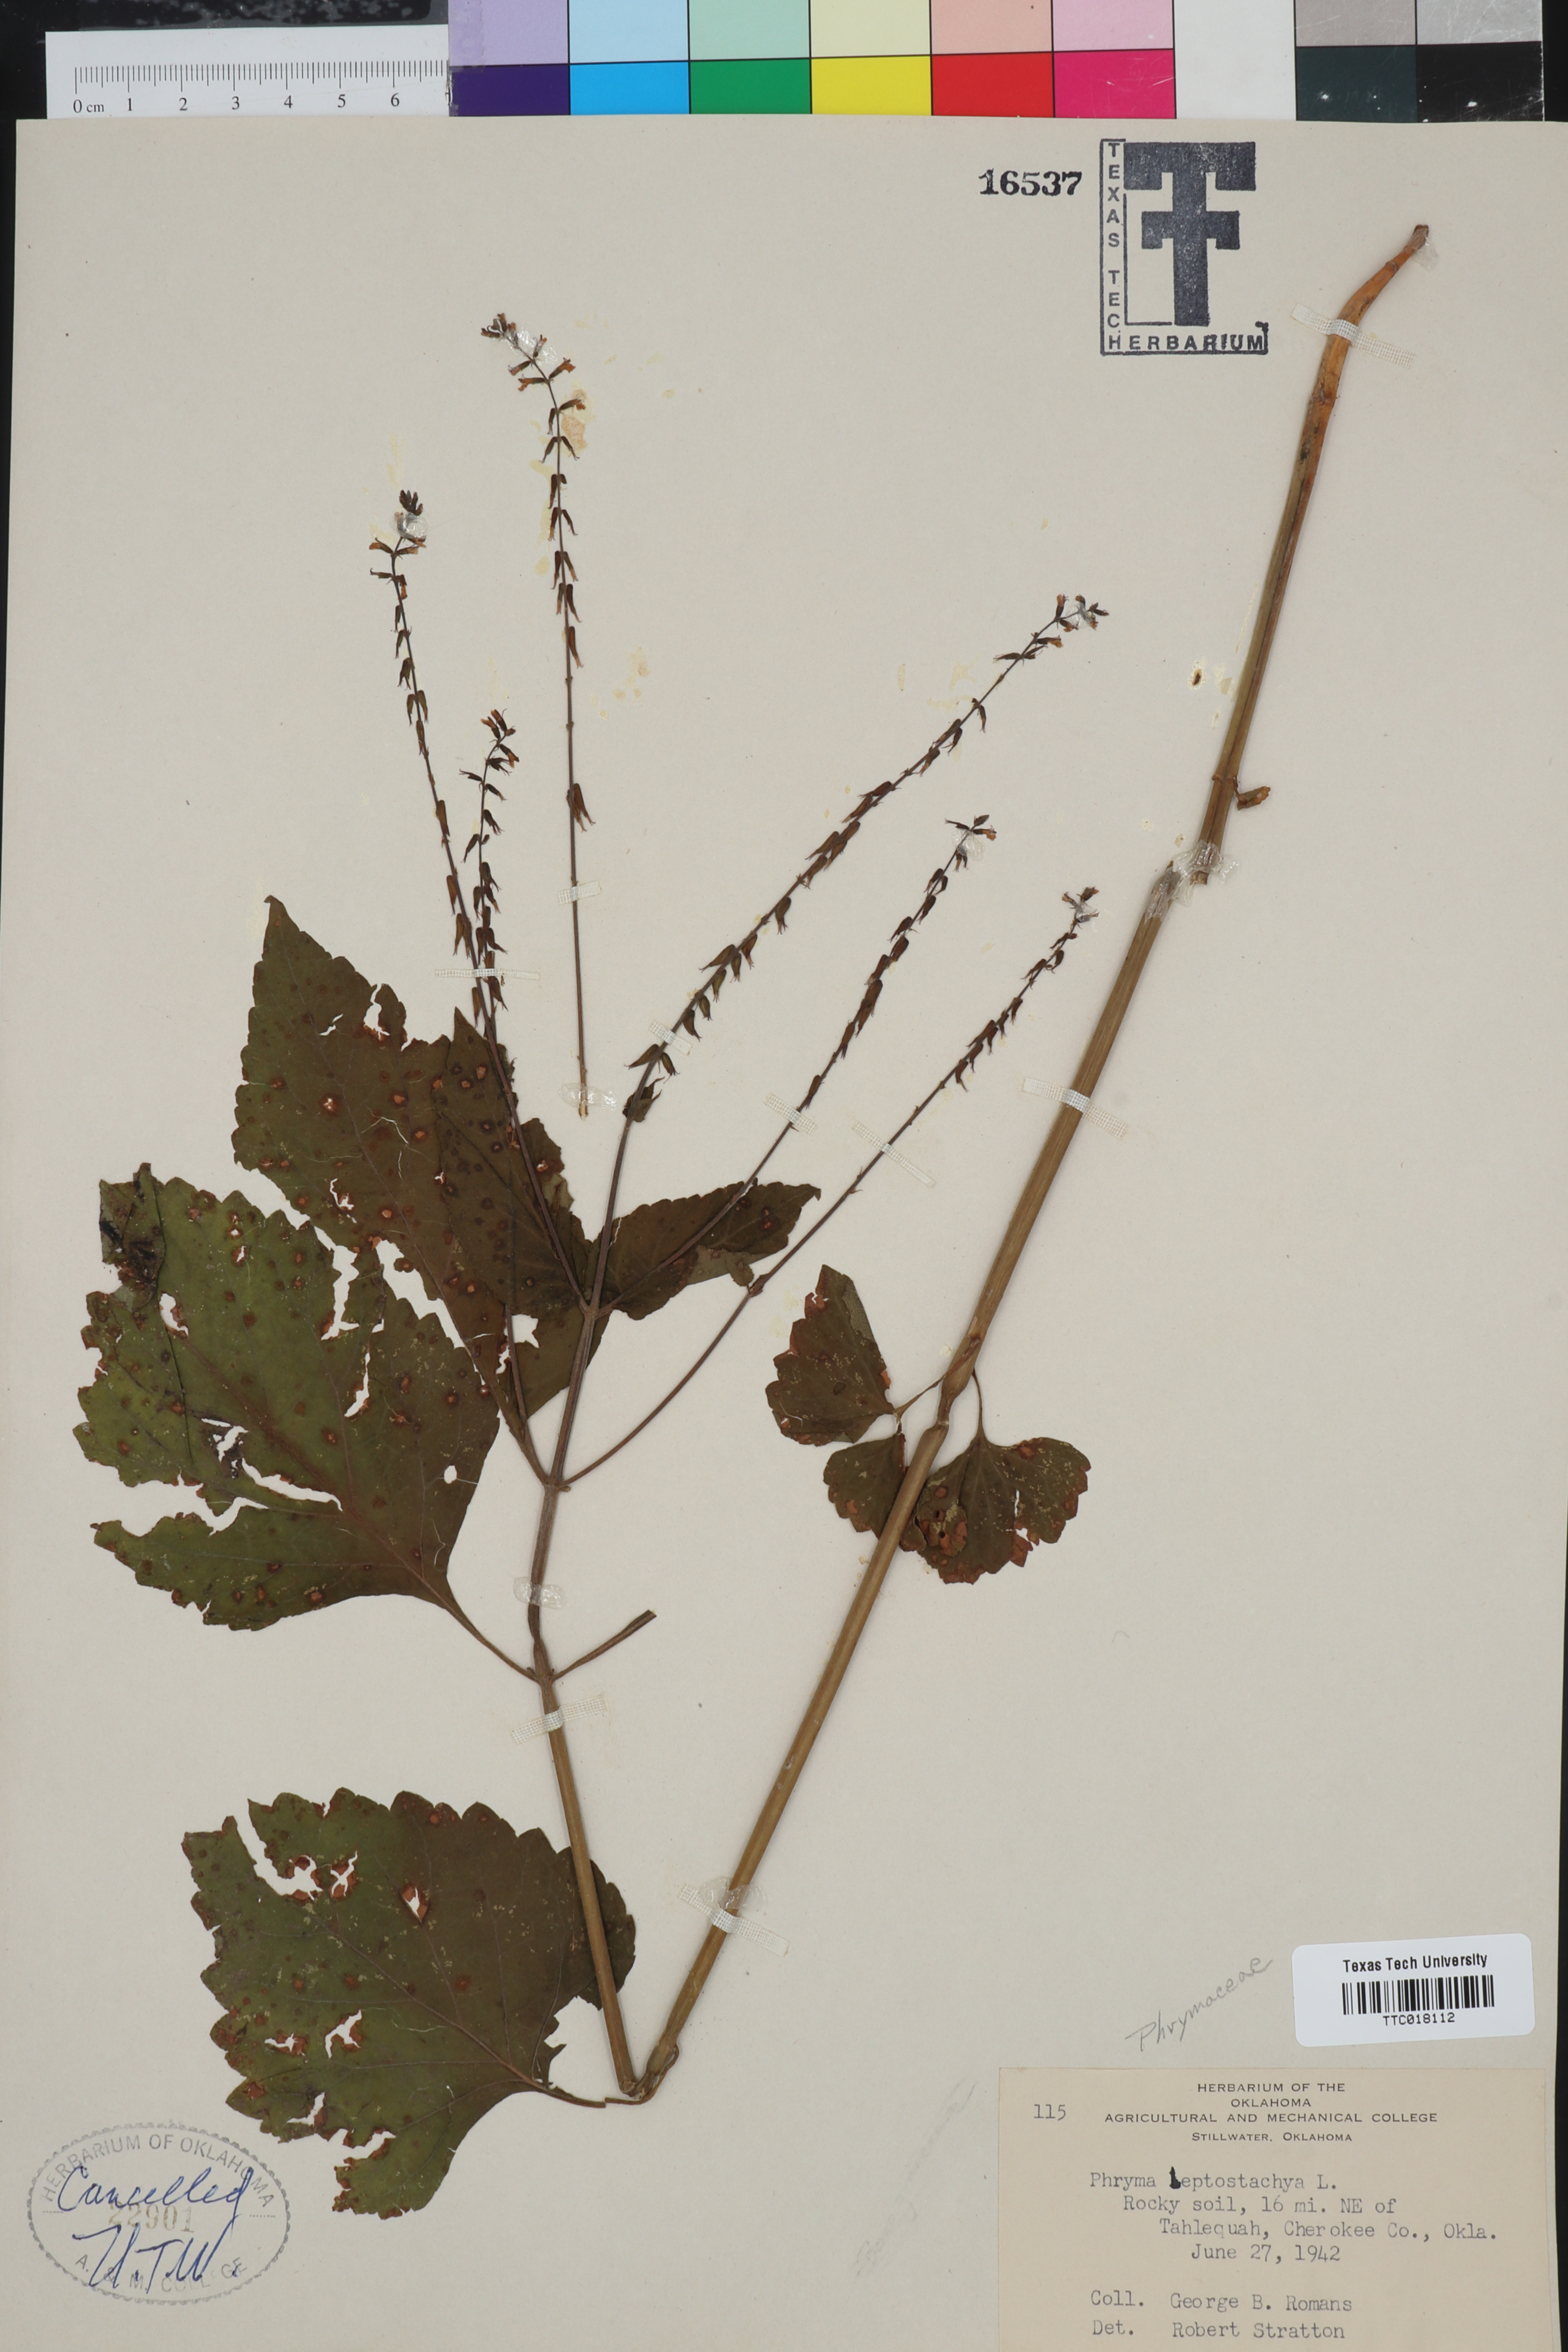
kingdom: Plantae
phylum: Tracheophyta
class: Magnoliopsida
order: Lamiales
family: Phrymaceae
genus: Phryma
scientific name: Phryma leptostachya
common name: American lopseed
